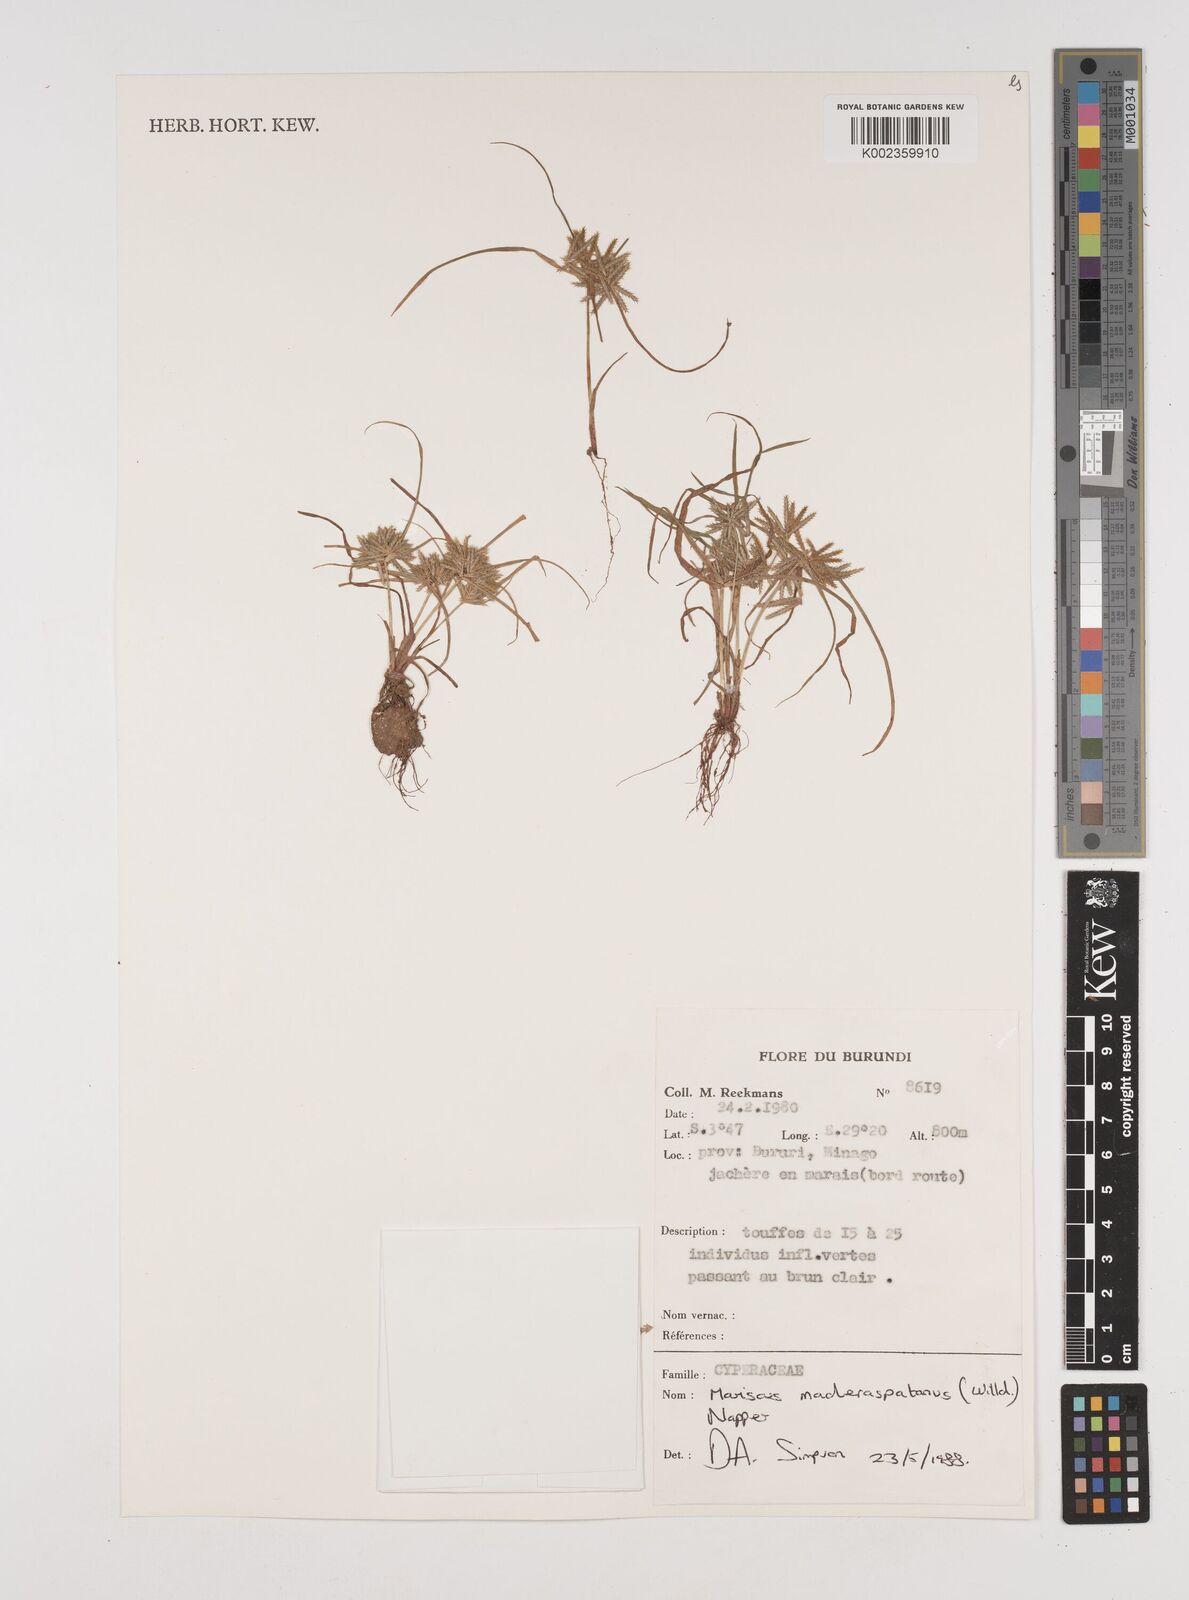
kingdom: Plantae
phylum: Tracheophyta
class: Liliopsida
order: Poales
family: Cyperaceae
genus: Cyperus
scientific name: Cyperus maderaspatanus
